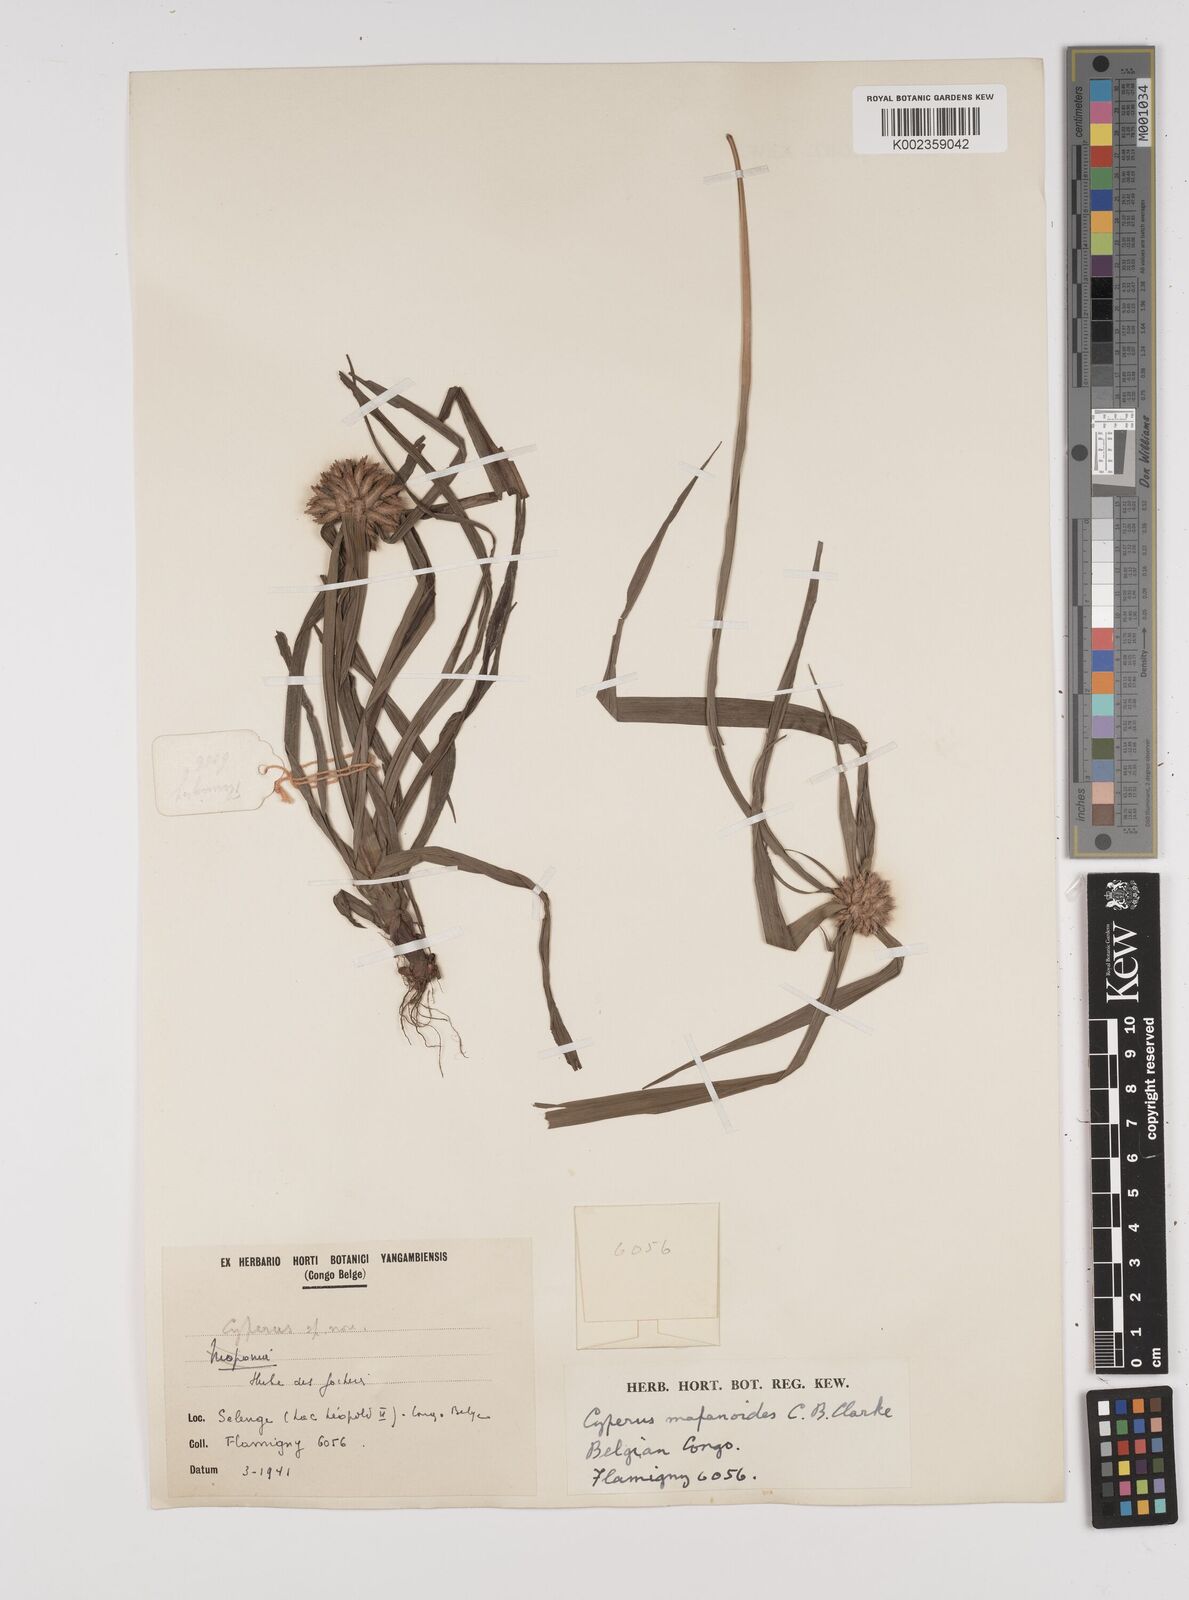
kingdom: Plantae
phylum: Tracheophyta
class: Liliopsida
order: Poales
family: Cyperaceae
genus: Cyperus
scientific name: Cyperus mapanioides
